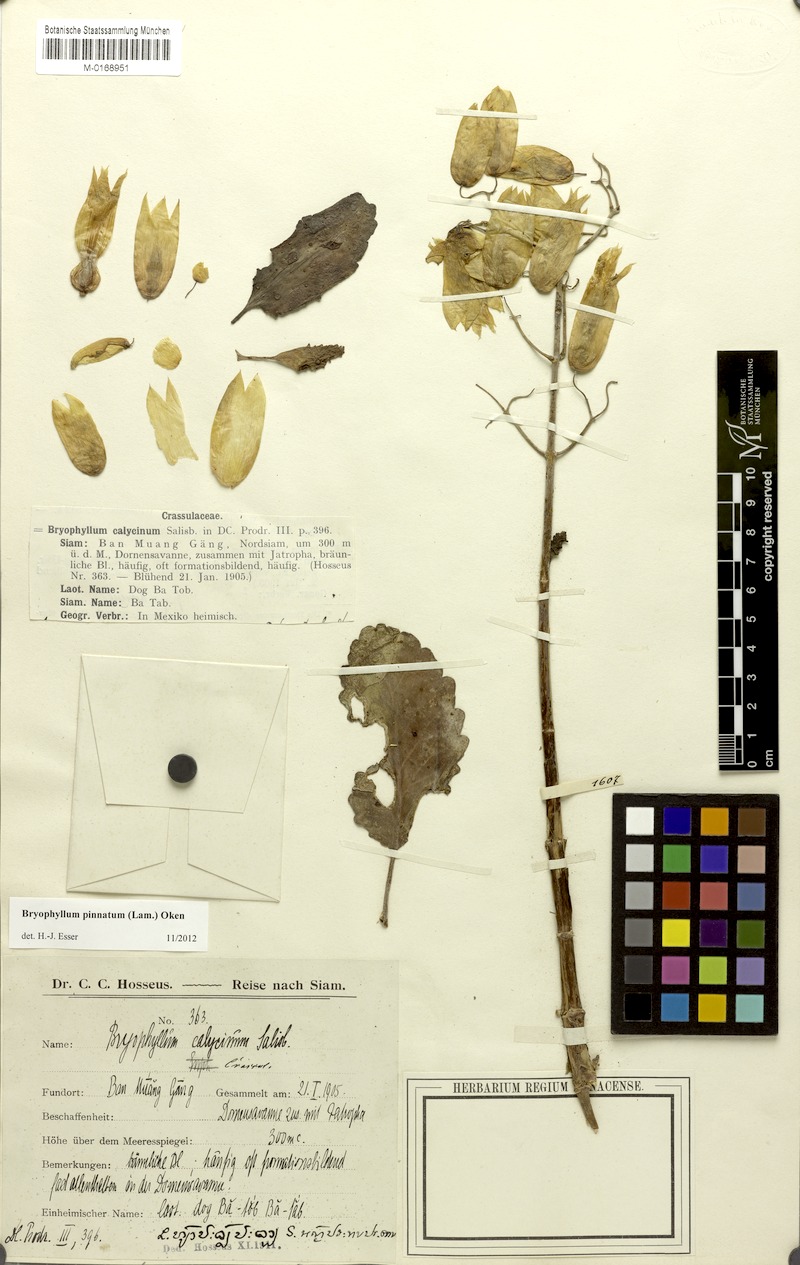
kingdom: Plantae
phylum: Tracheophyta
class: Magnoliopsida
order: Saxifragales
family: Crassulaceae
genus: Kalanchoe
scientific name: Kalanchoe pinnata
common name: Cathedral bells
